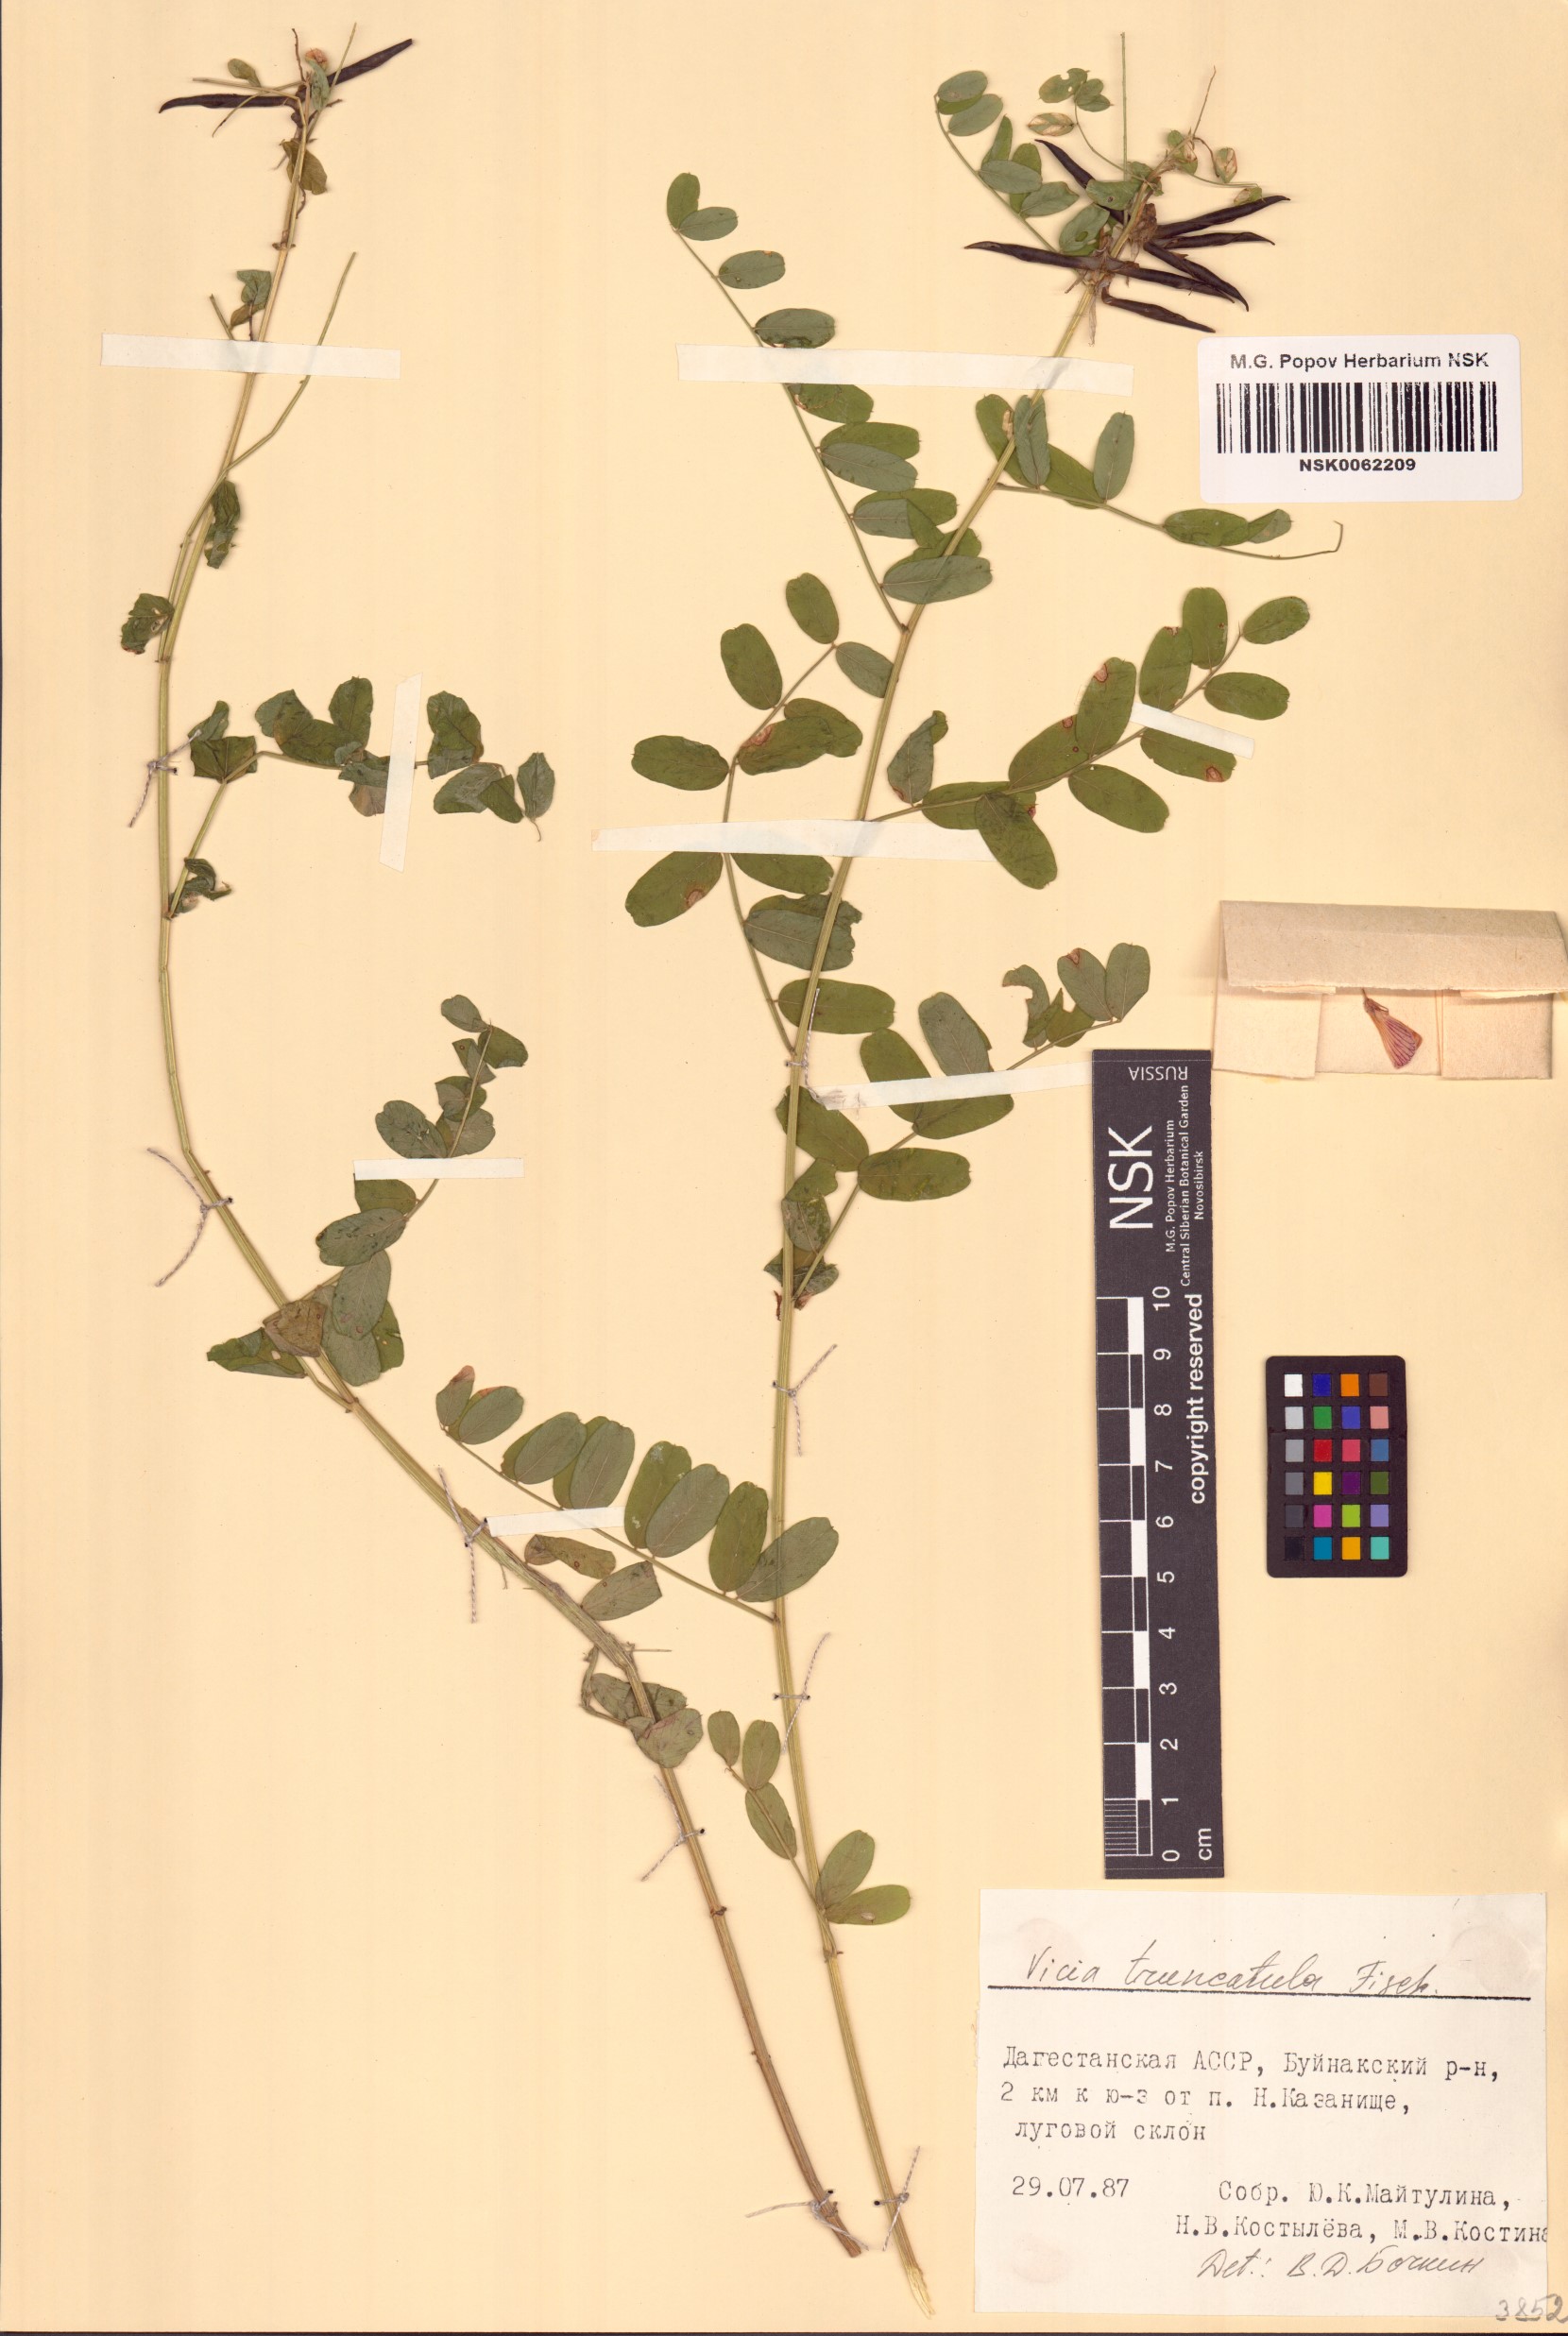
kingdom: Plantae
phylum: Tracheophyta
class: Magnoliopsida
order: Fabales
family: Fabaceae
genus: Vicia
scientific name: Vicia abbreviata
